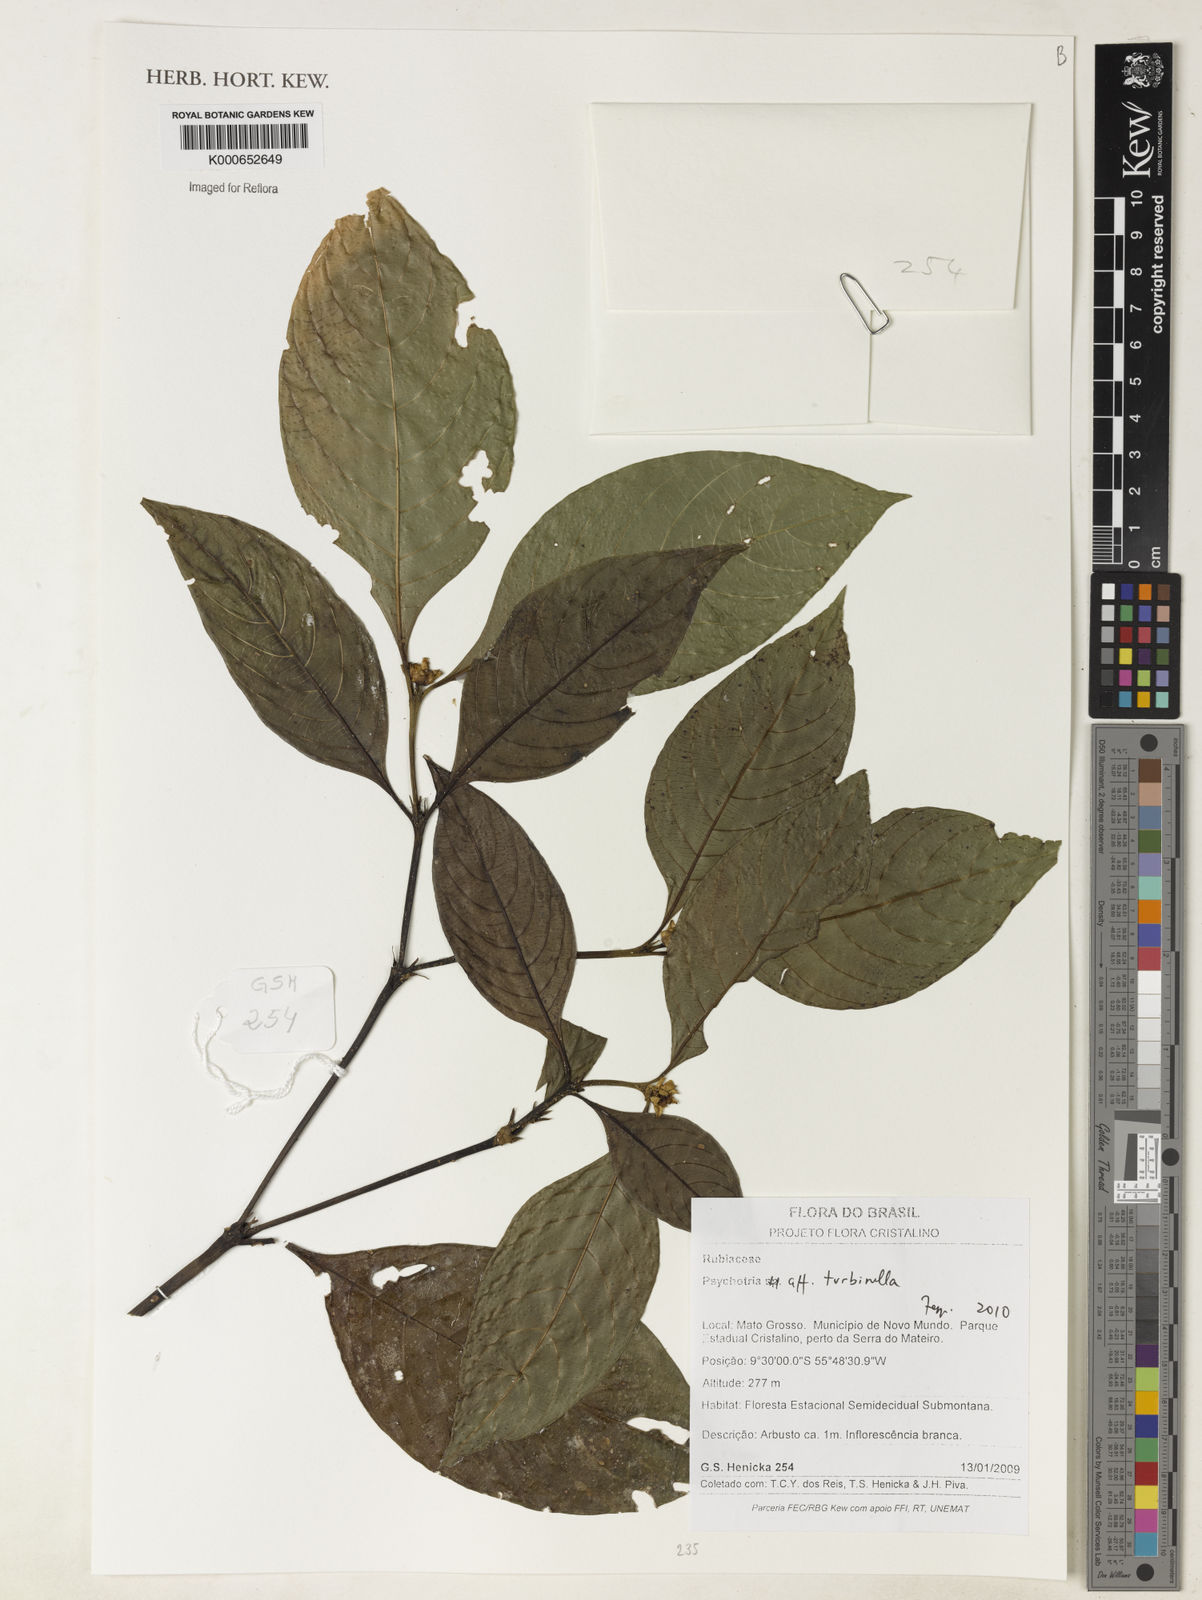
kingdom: Plantae
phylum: Tracheophyta
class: Magnoliopsida
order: Gentianales
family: Rubiaceae
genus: Psychotria
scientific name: Psychotria
